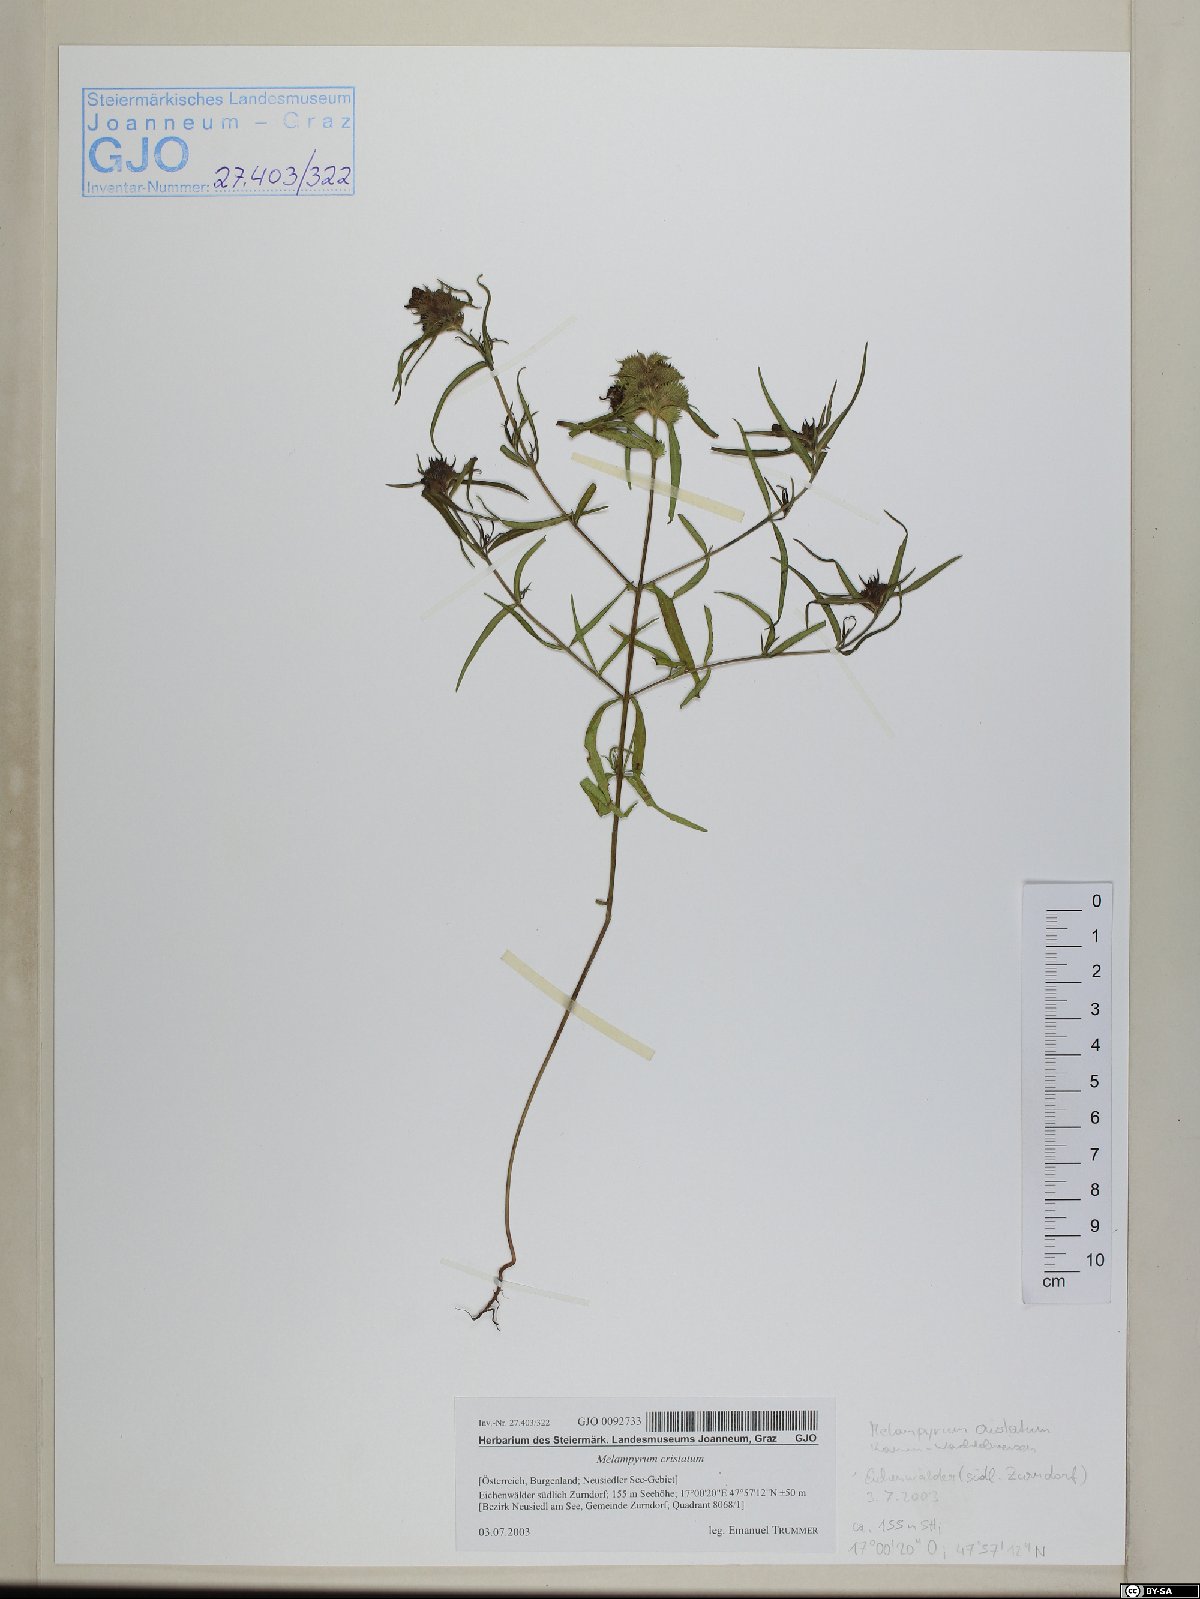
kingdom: Plantae
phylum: Tracheophyta
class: Magnoliopsida
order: Lamiales
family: Orobanchaceae
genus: Melampyrum
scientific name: Melampyrum cristatum
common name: Crested cow-wheat
